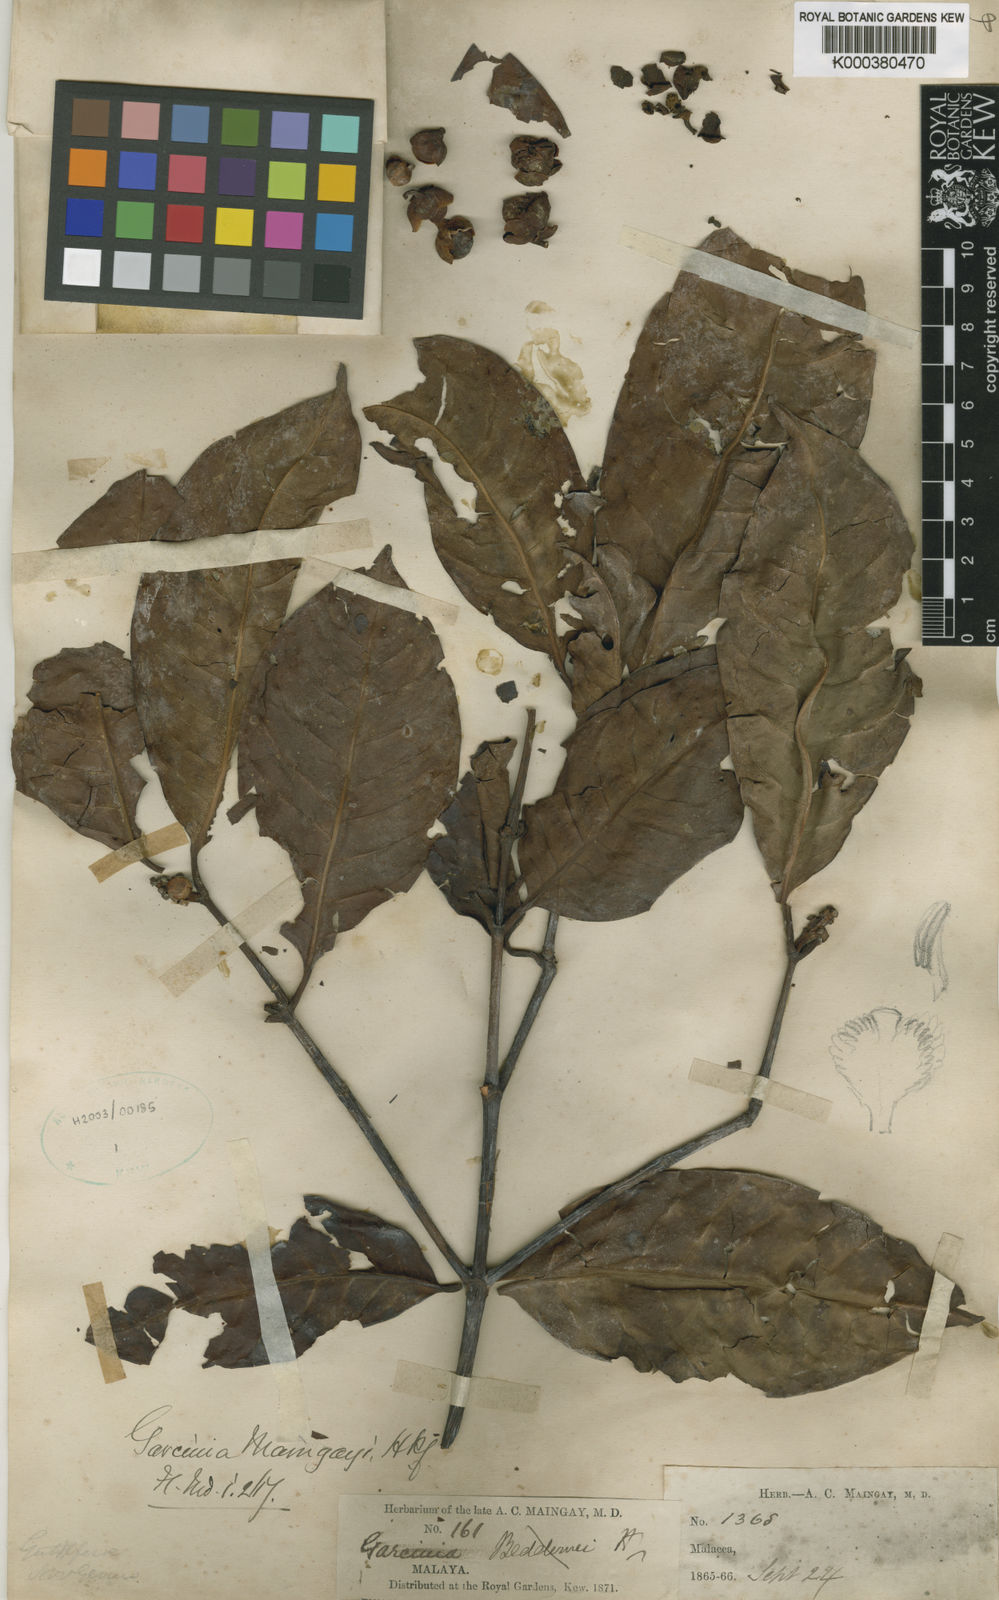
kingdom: Plantae
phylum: Tracheophyta
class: Magnoliopsida
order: Malpighiales
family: Clusiaceae
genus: Garcinia
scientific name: Garcinia
